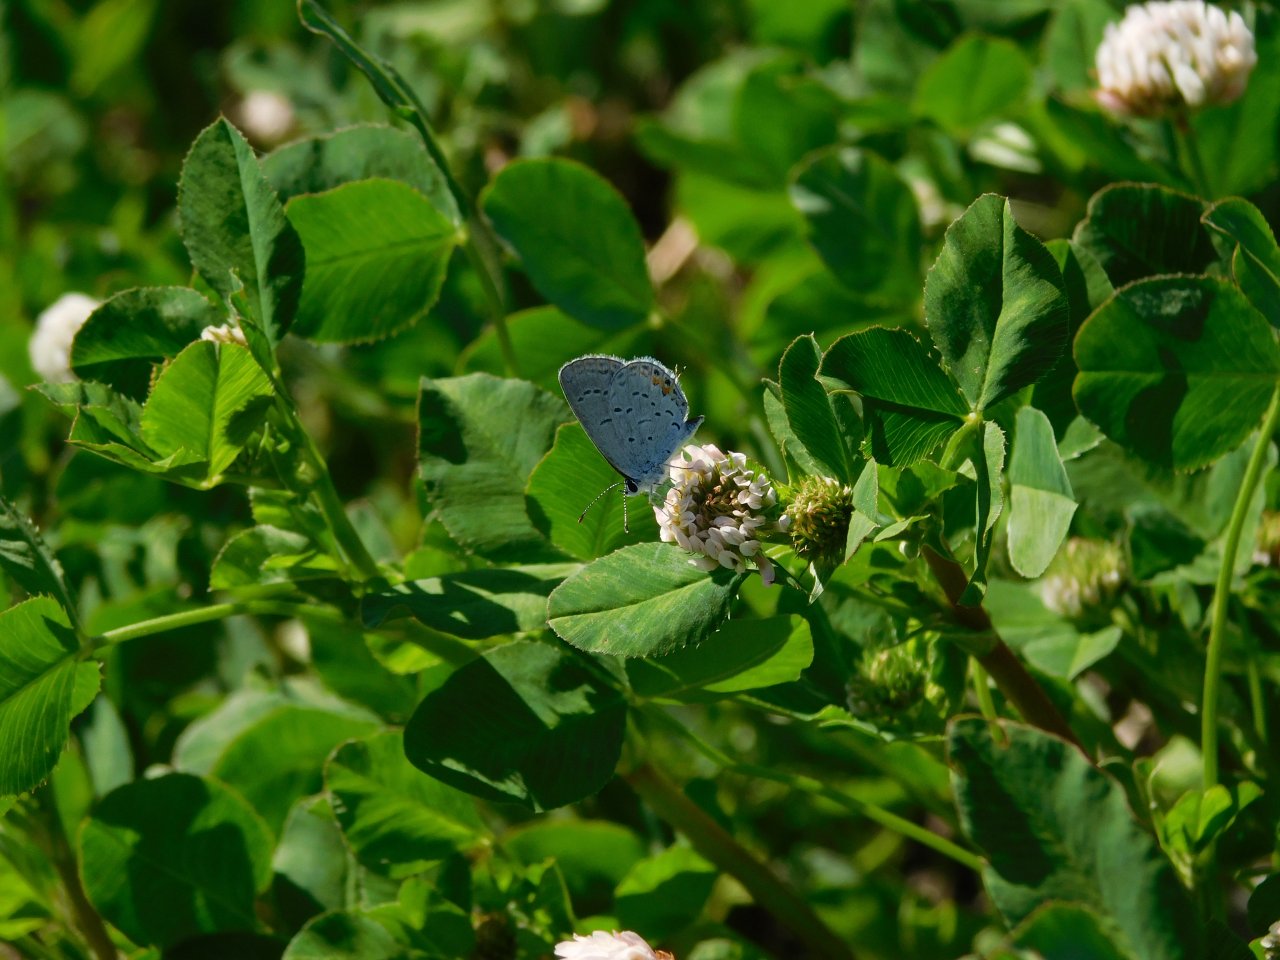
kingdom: Animalia
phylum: Arthropoda
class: Insecta
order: Lepidoptera
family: Lycaenidae
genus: Elkalyce
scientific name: Elkalyce comyntas
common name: Eastern Tailed-Blue
